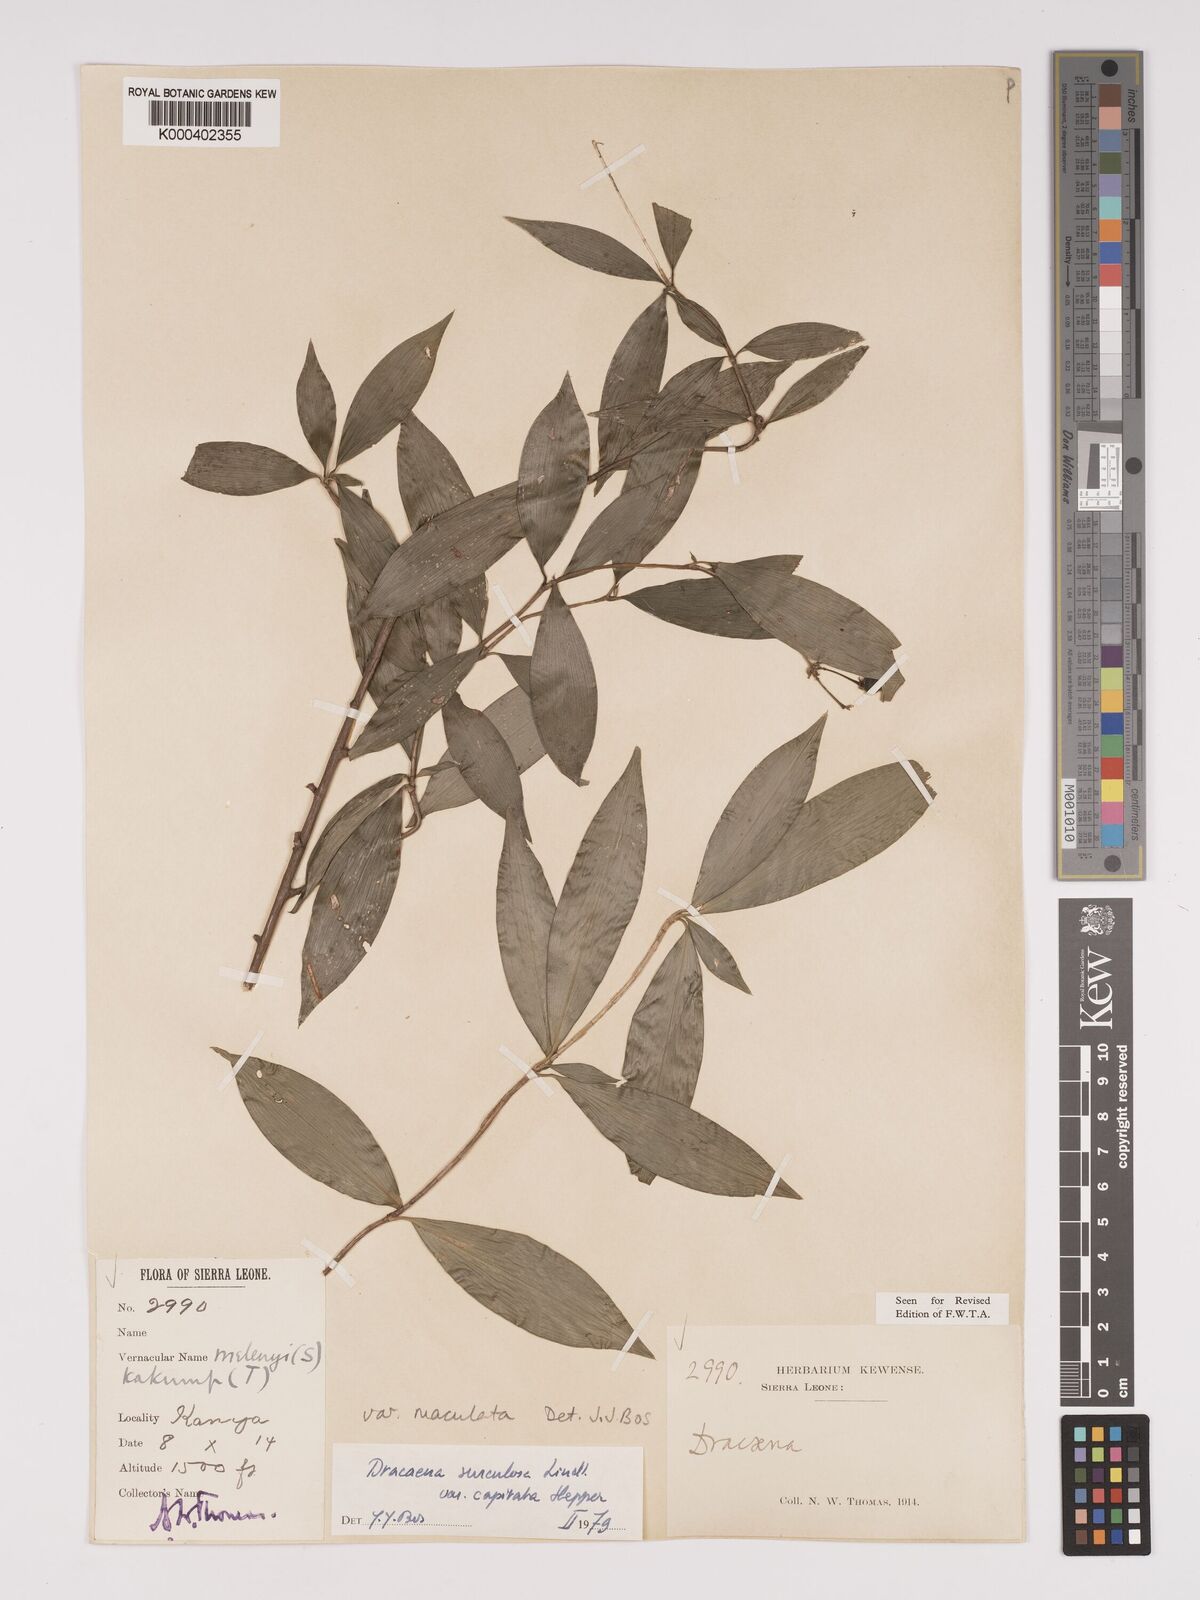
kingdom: Plantae
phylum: Tracheophyta
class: Liliopsida
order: Asparagales
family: Asparagaceae
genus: Dracaena
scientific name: Dracaena surculosa
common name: Spotted dracaena
